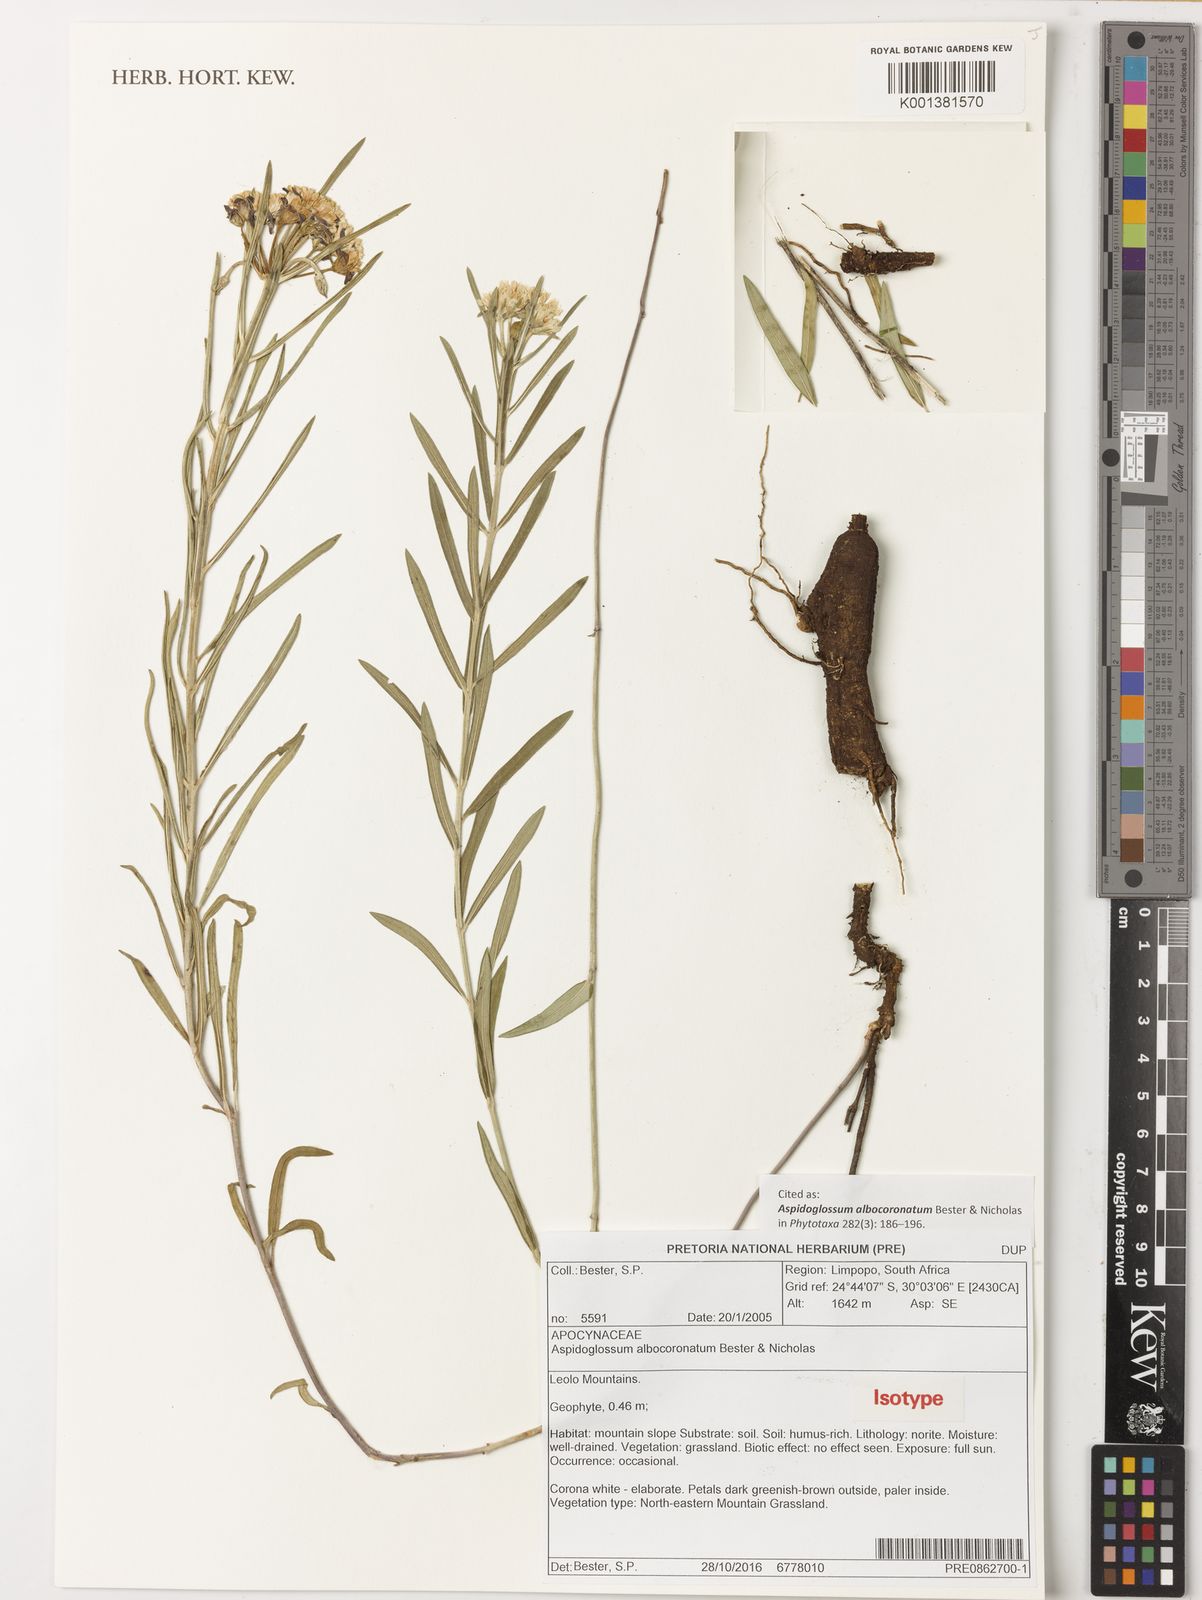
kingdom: Plantae
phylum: Tracheophyta
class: Magnoliopsida
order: Gentianales
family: Apocynaceae
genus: Aspidoglossum
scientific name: Aspidoglossum albocoronatum
